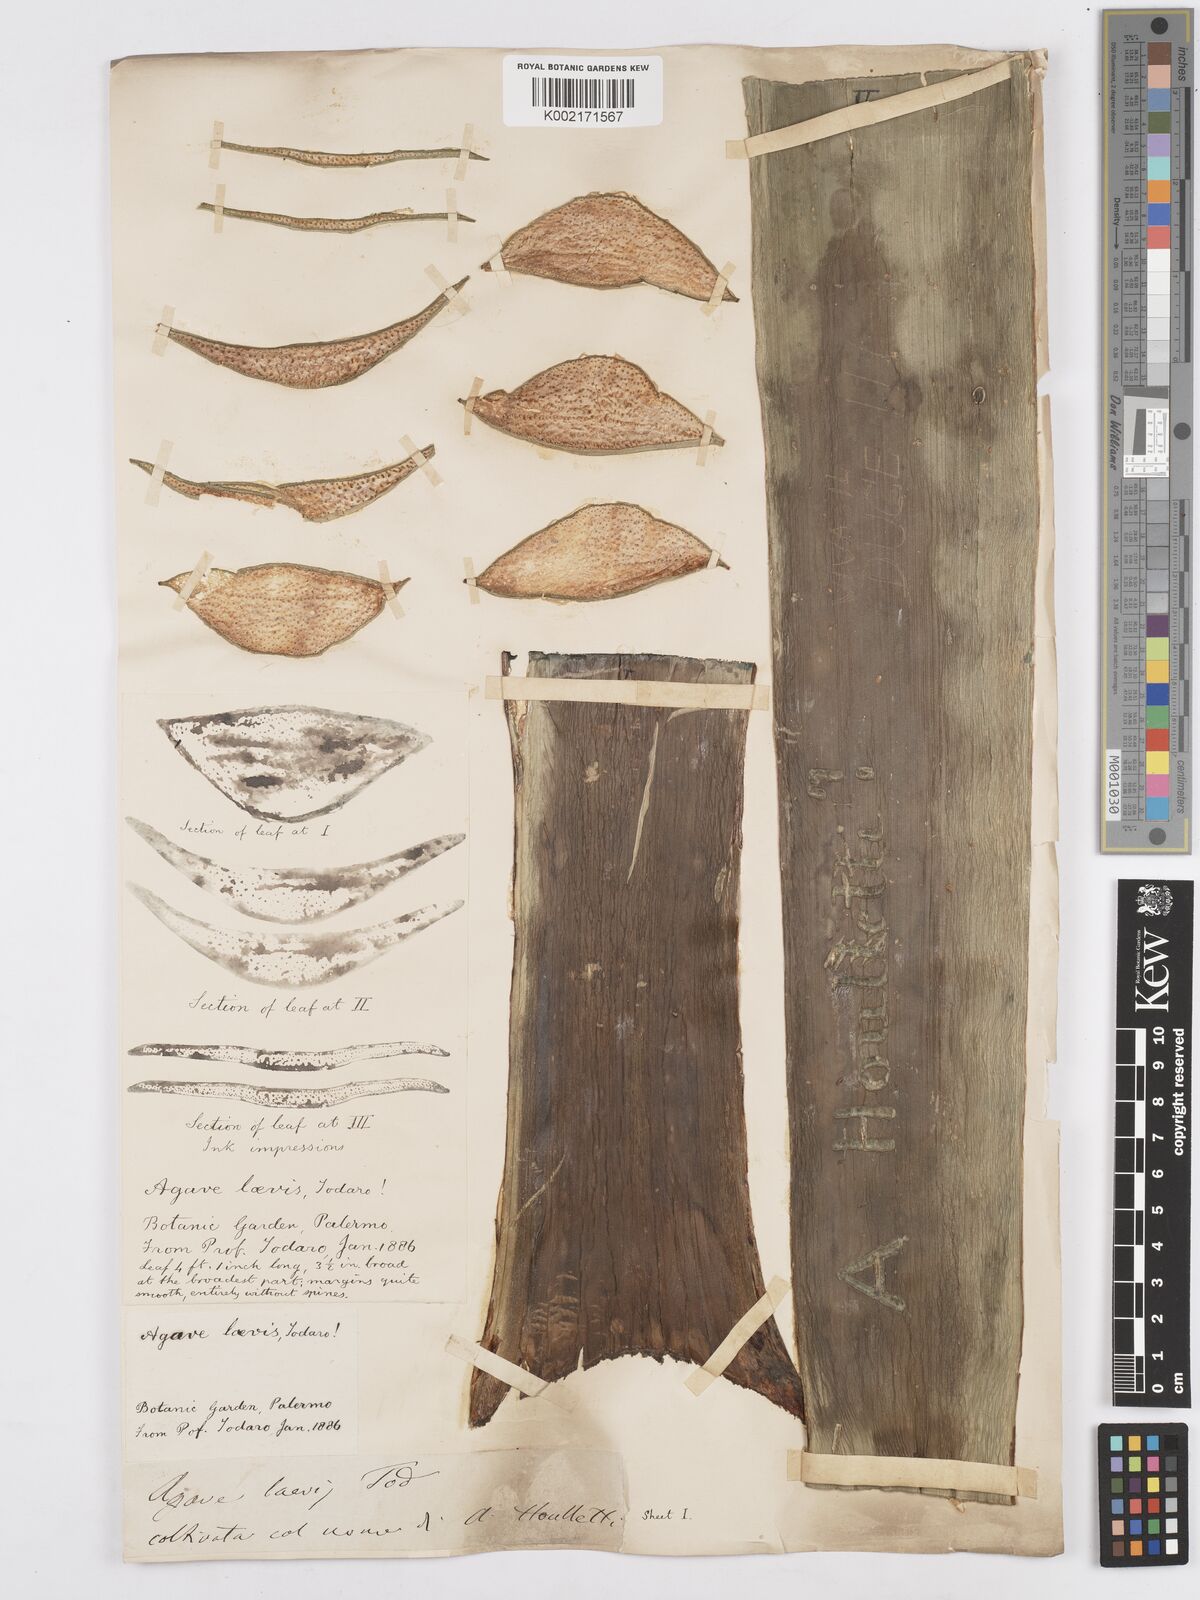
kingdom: Plantae
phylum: Tracheophyta
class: Liliopsida
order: Asparagales
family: Asparagaceae
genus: Agave
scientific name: Agave
